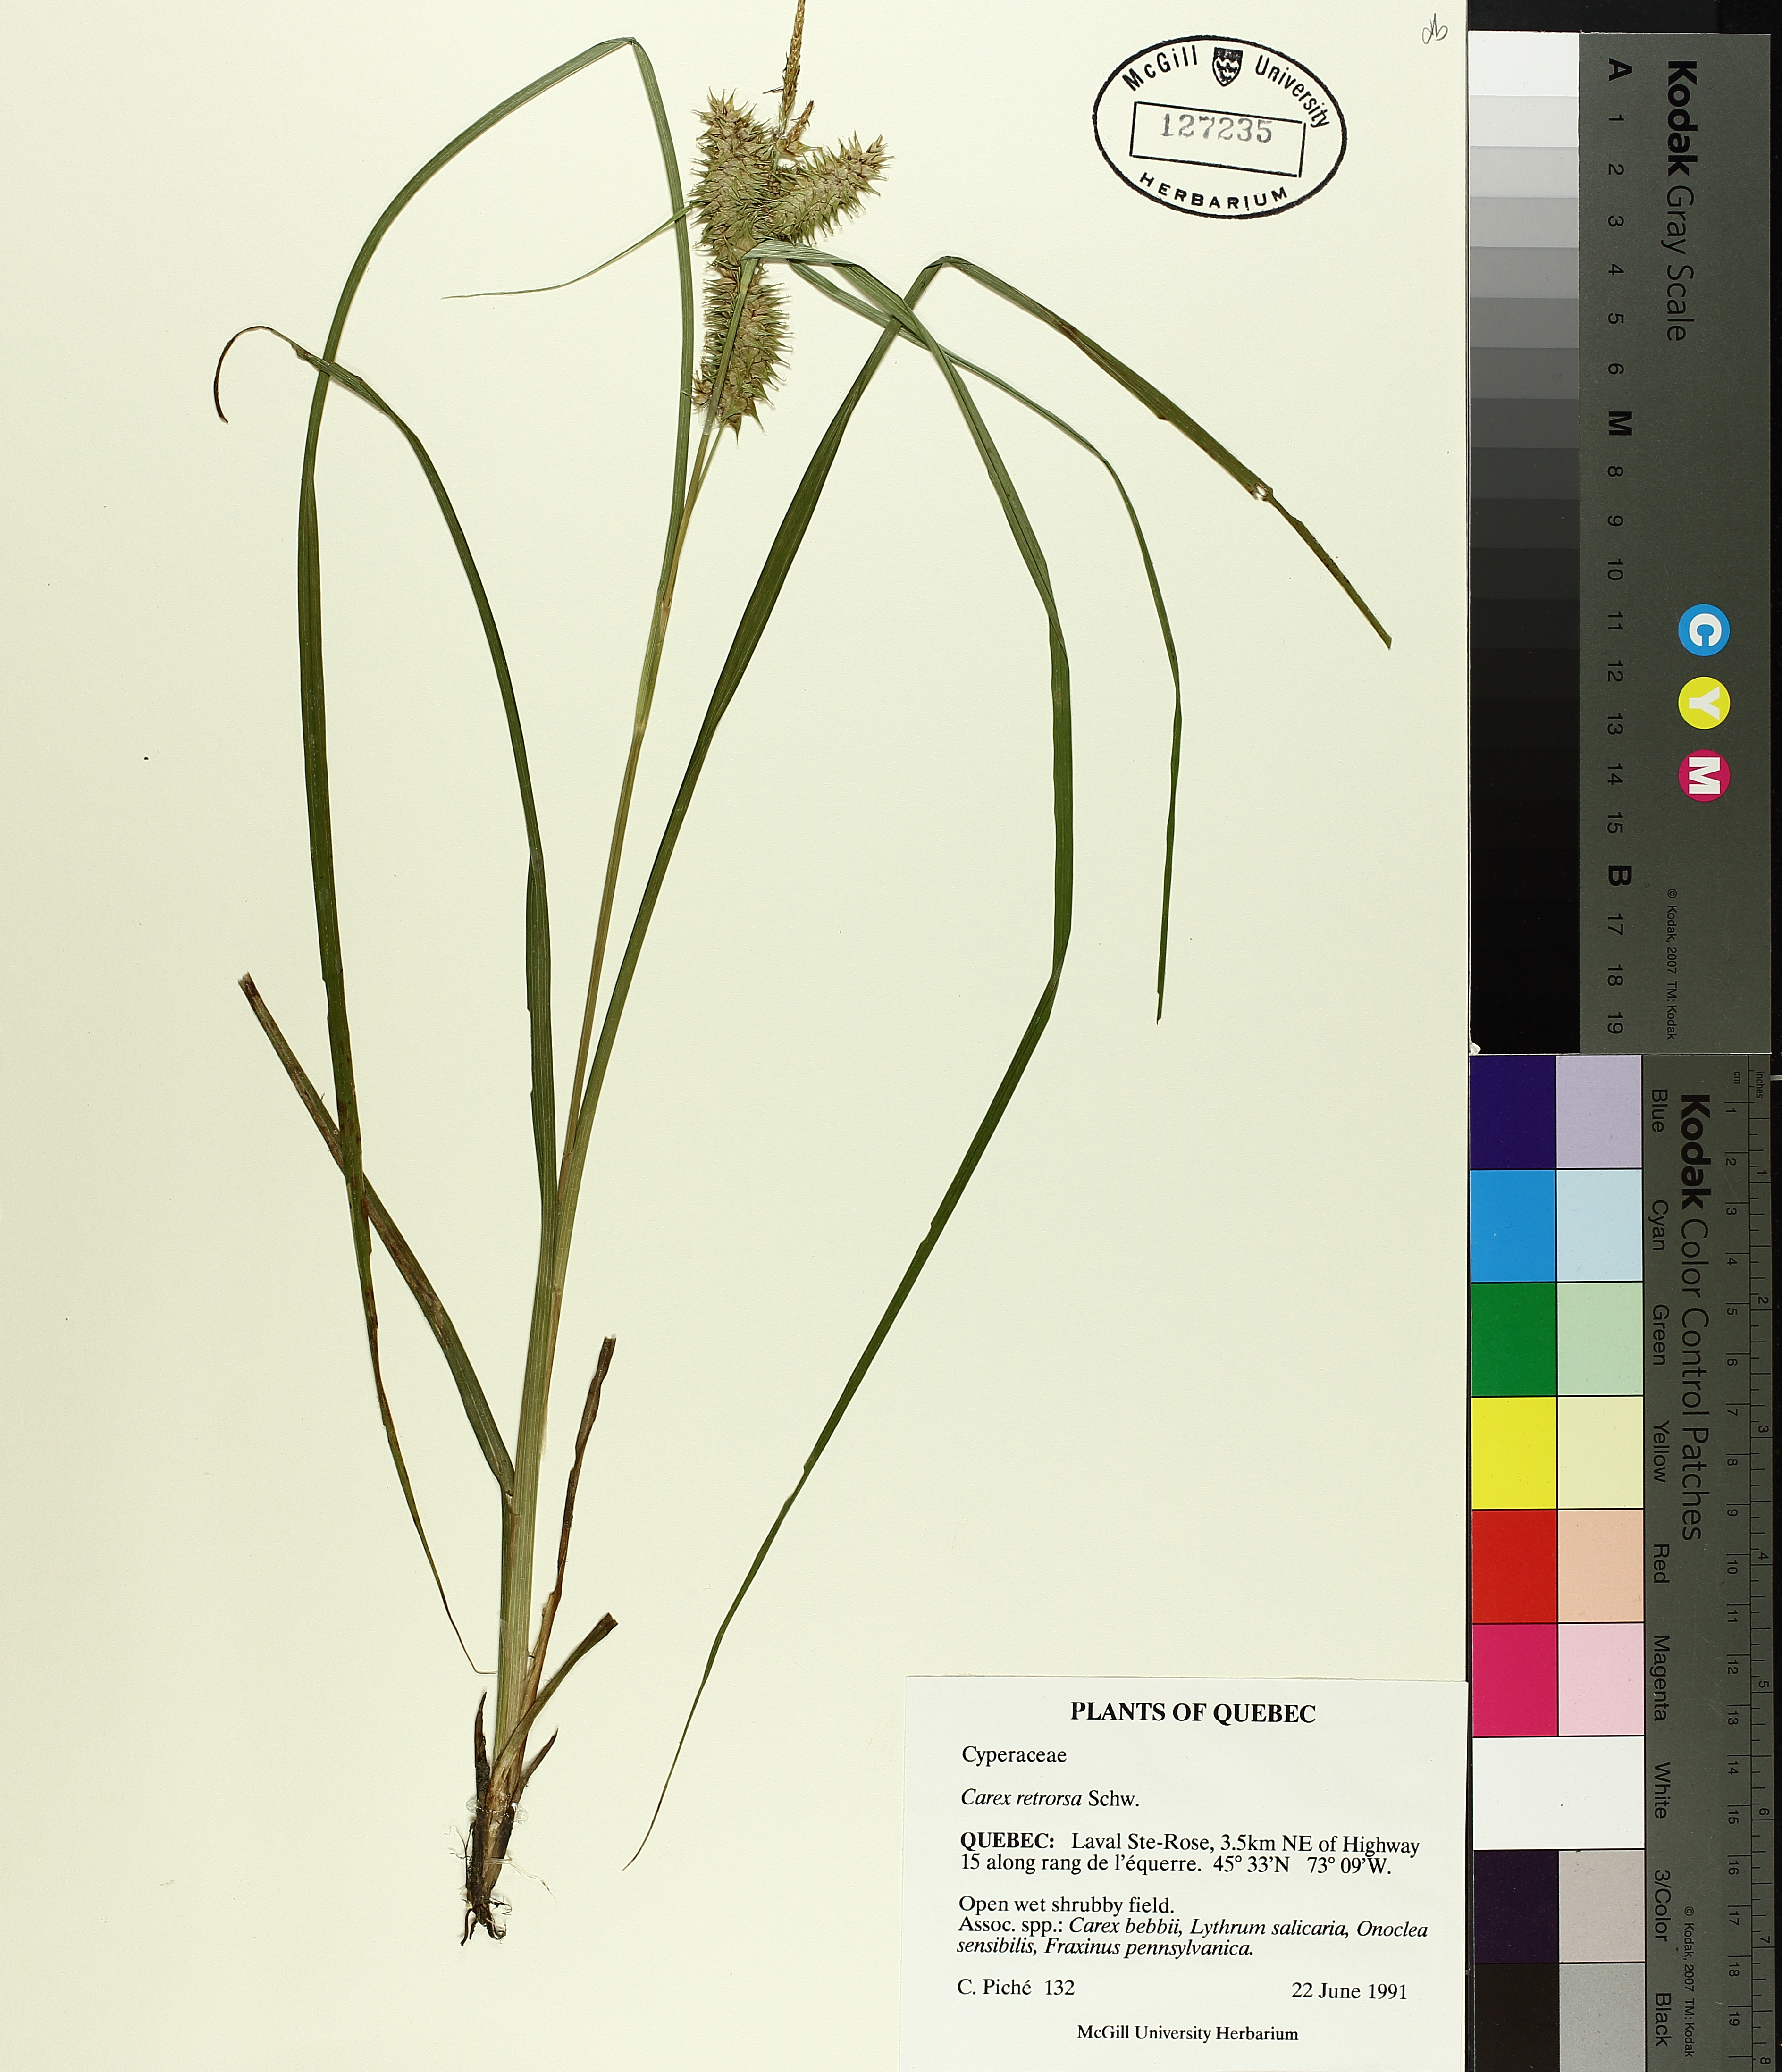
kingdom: Plantae
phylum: Tracheophyta
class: Liliopsida
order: Poales
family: Cyperaceae
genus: Carex
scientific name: Carex retrorsa
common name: Knot-sheath sedge
